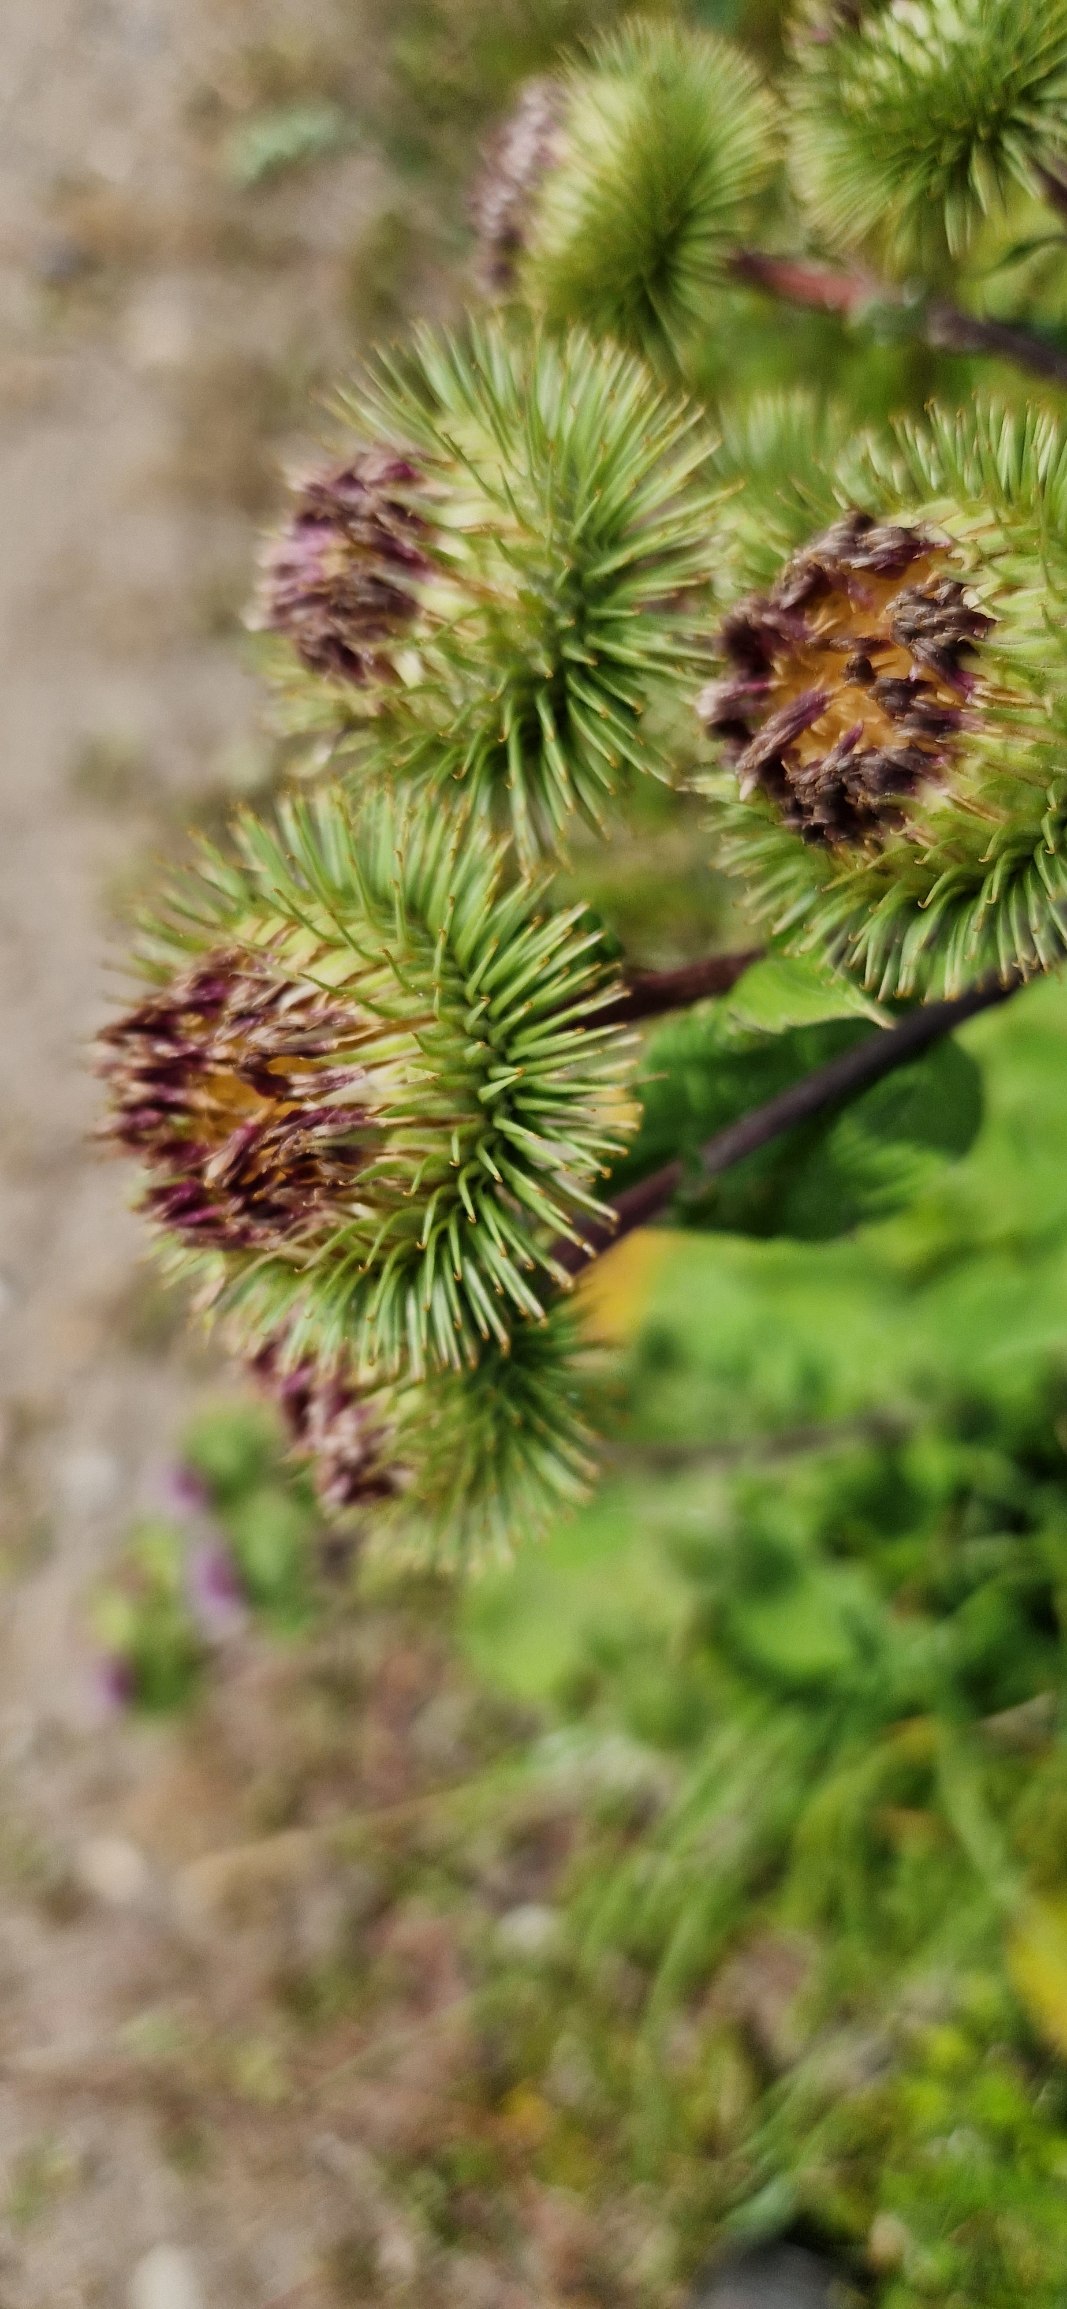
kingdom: Plantae
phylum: Tracheophyta
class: Magnoliopsida
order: Asterales
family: Asteraceae
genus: Arctium
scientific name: Arctium lappa
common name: Glat burre
